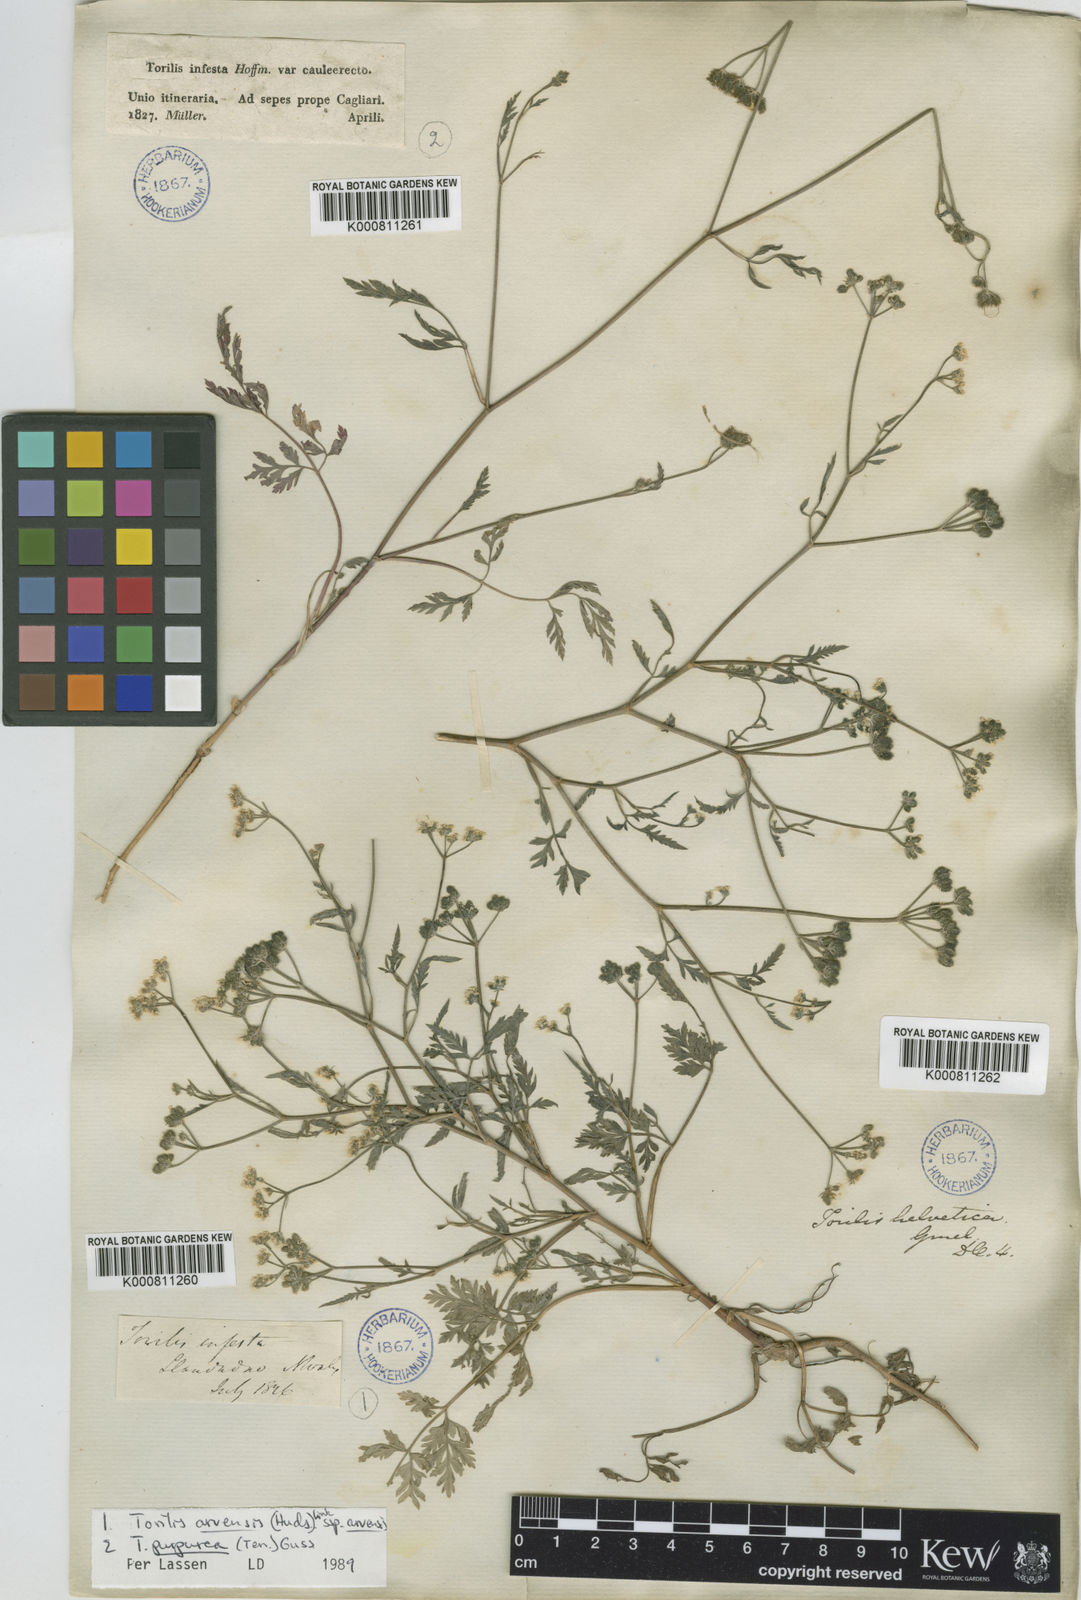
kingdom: Plantae
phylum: Tracheophyta
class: Magnoliopsida
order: Apiales
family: Apiaceae
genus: Torilis
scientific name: Torilis arvensis
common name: Spreading hedge-parsley
